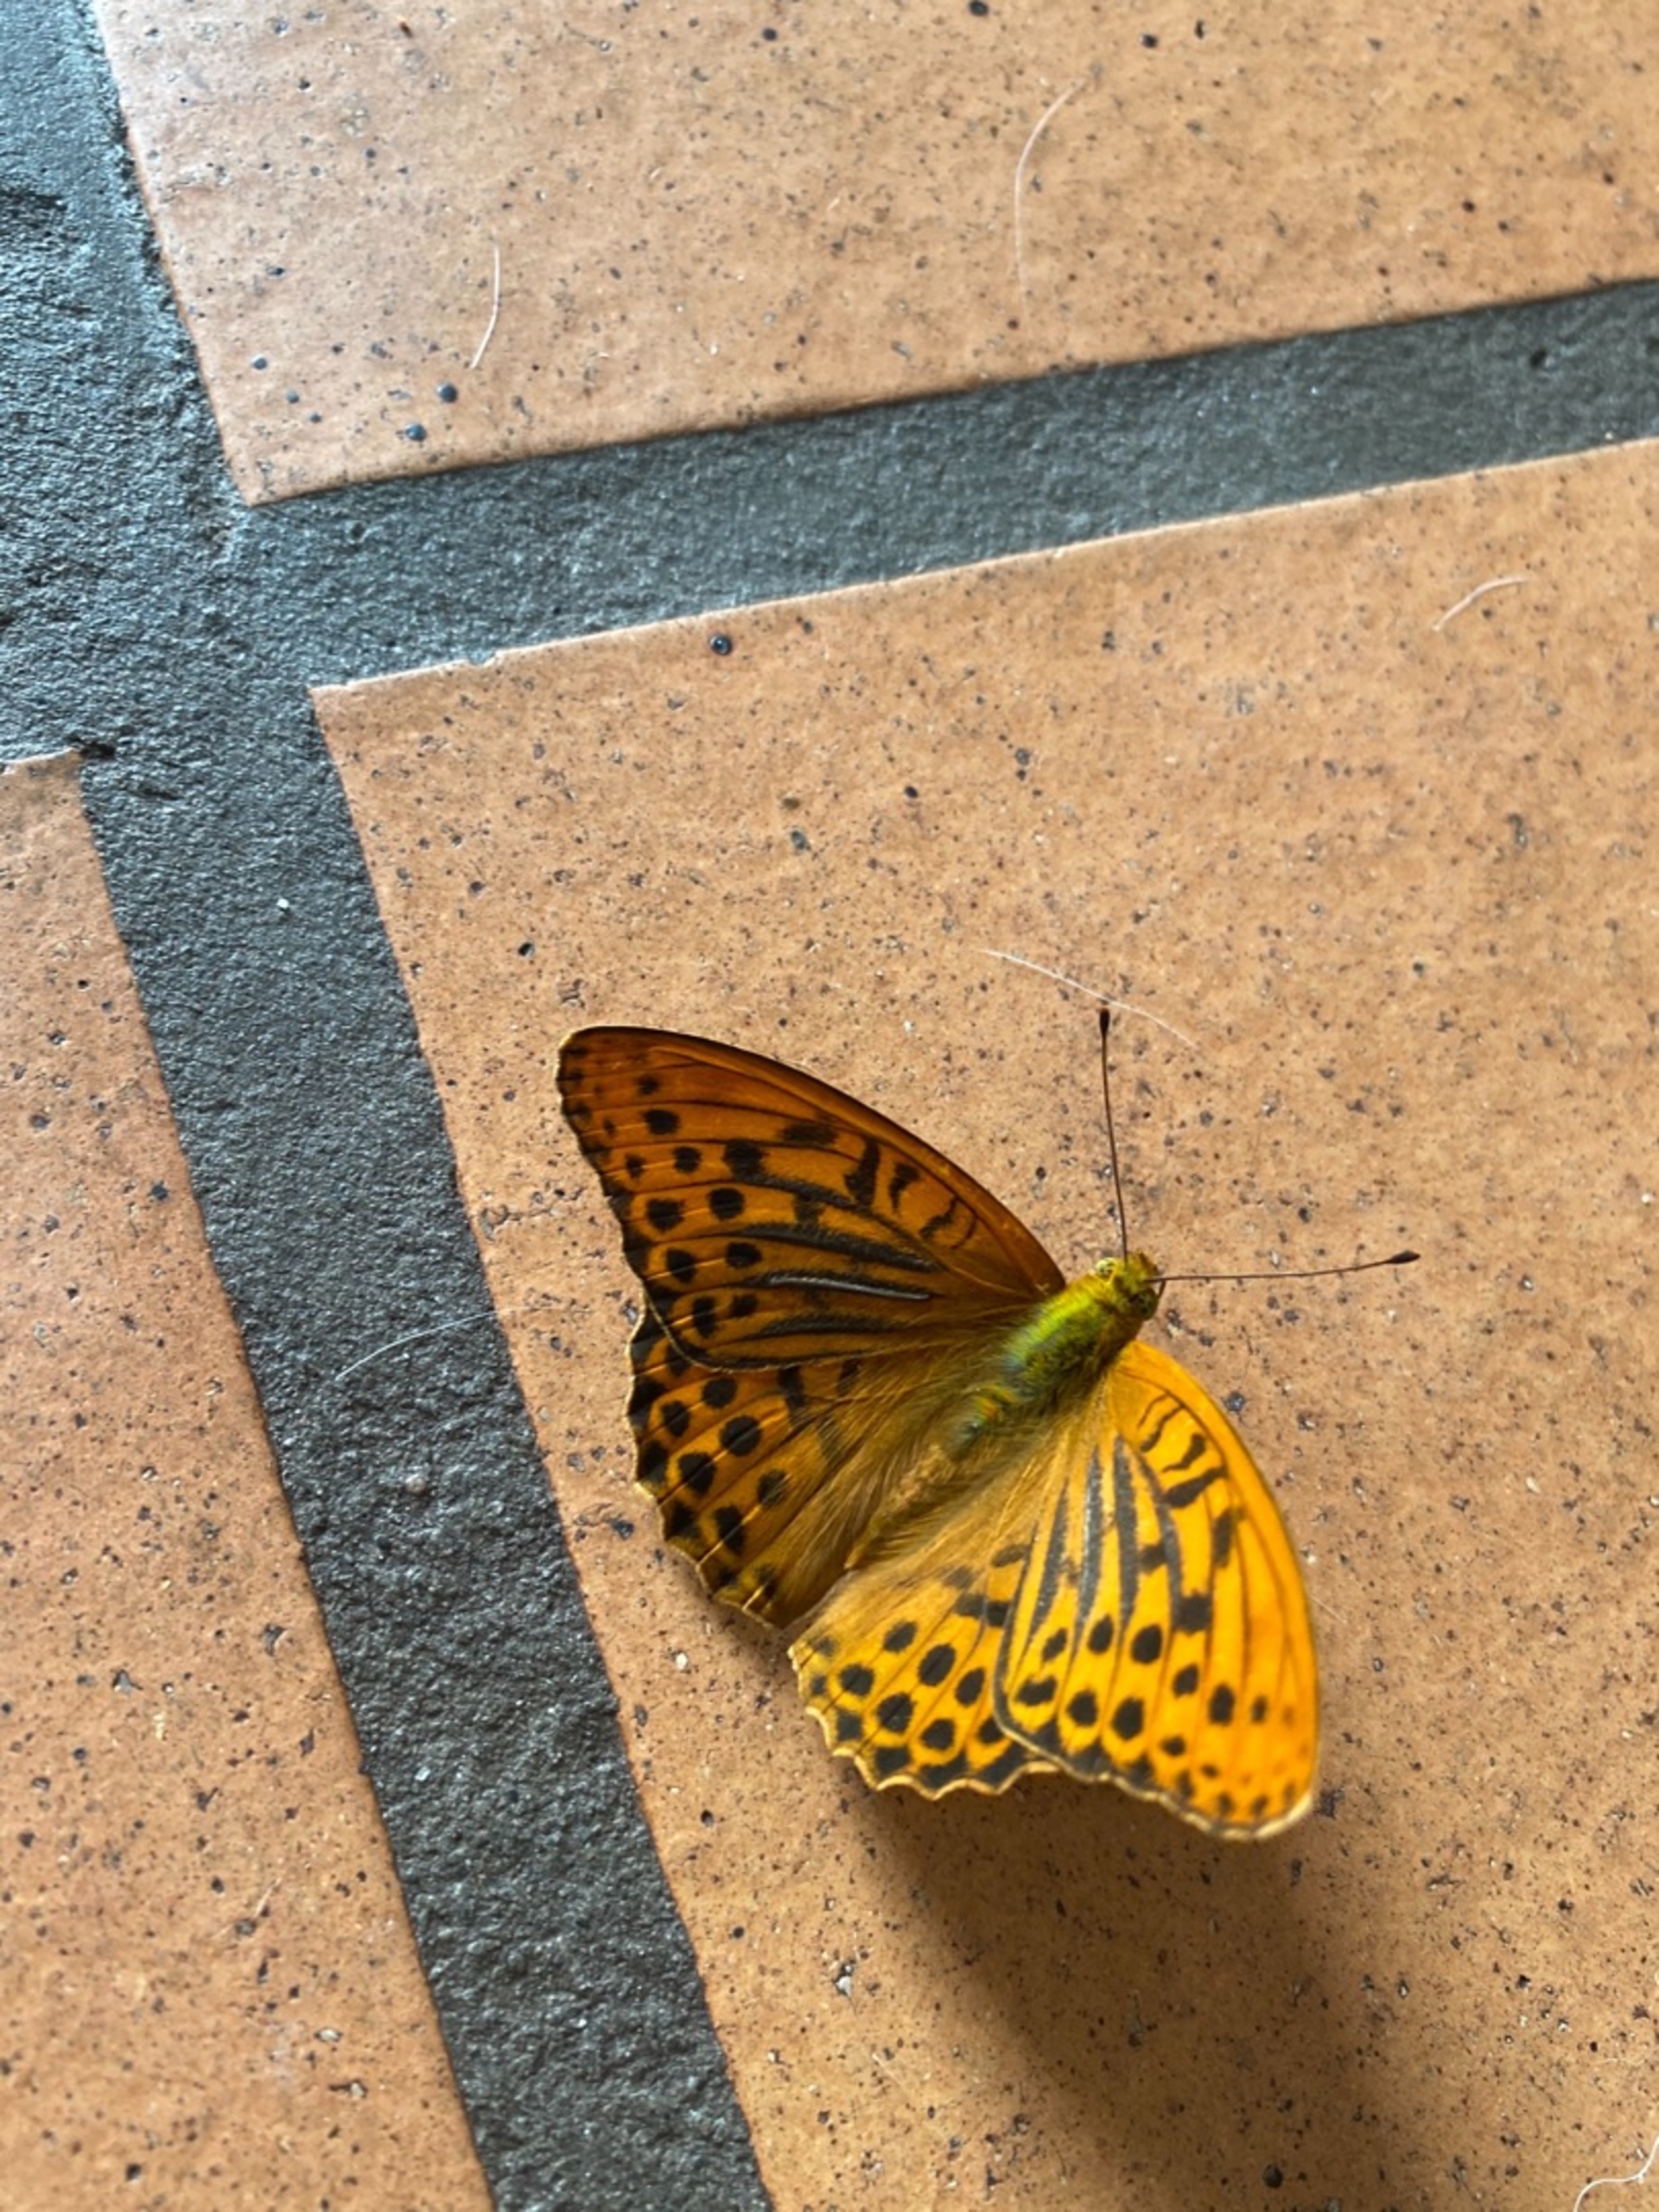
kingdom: Animalia
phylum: Arthropoda
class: Insecta
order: Lepidoptera
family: Nymphalidae
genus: Argynnis
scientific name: Argynnis paphia
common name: Kejserkåbe
